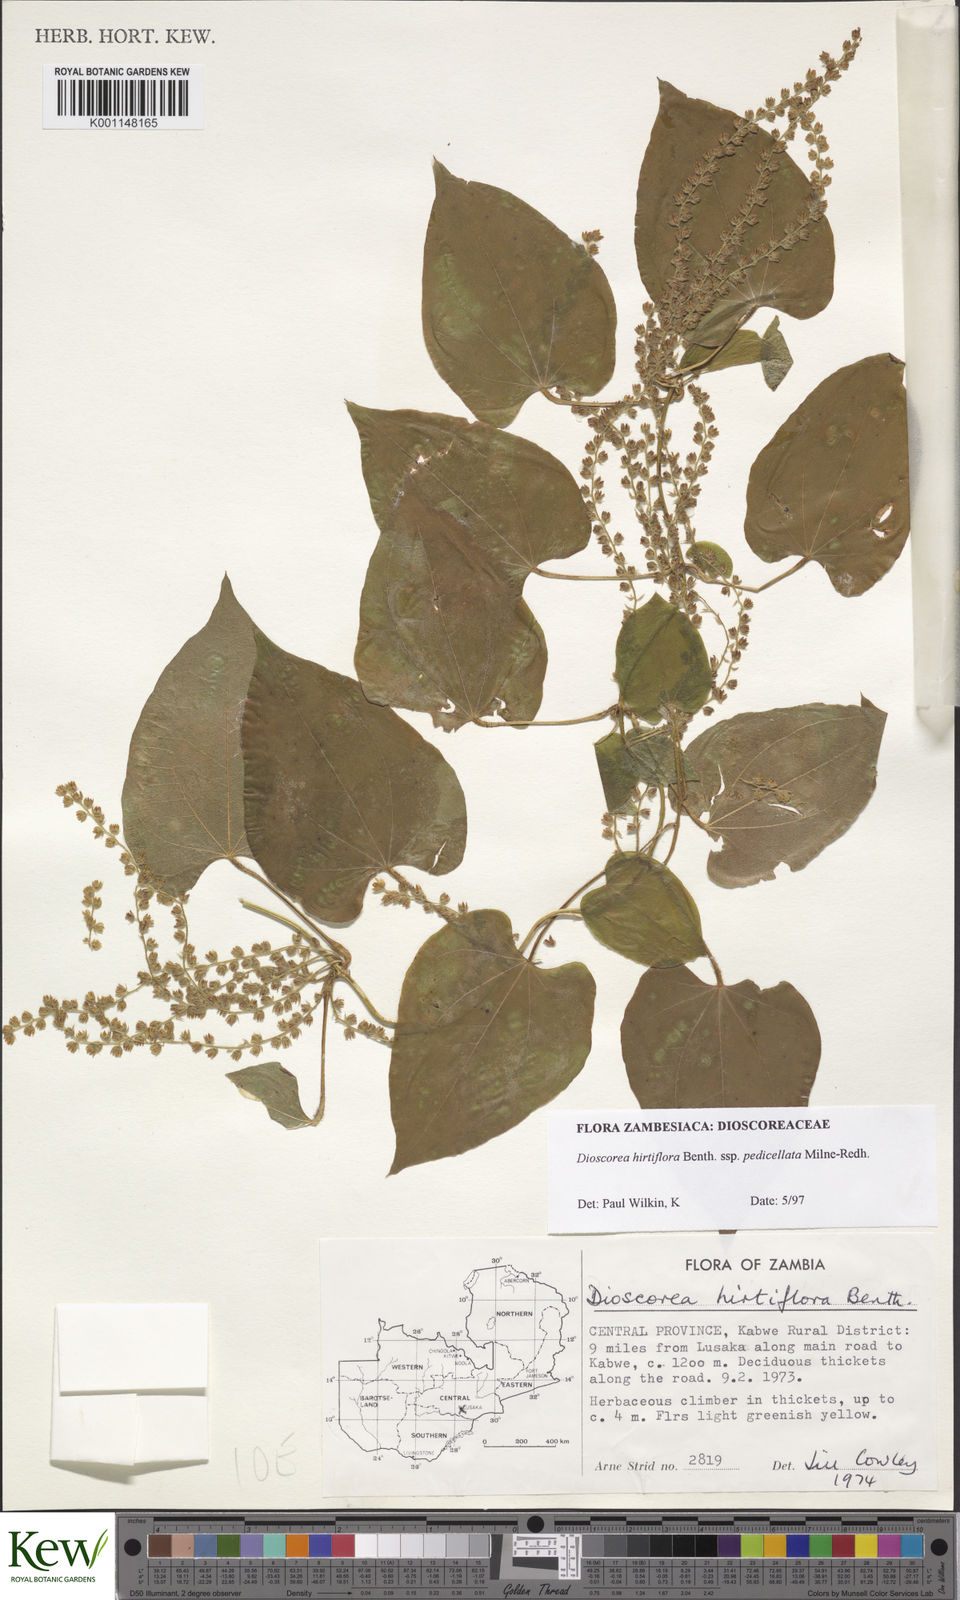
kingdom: Plantae
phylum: Tracheophyta
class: Liliopsida
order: Dioscoreales
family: Dioscoreaceae
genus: Dioscorea
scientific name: Dioscorea hirtiflora
